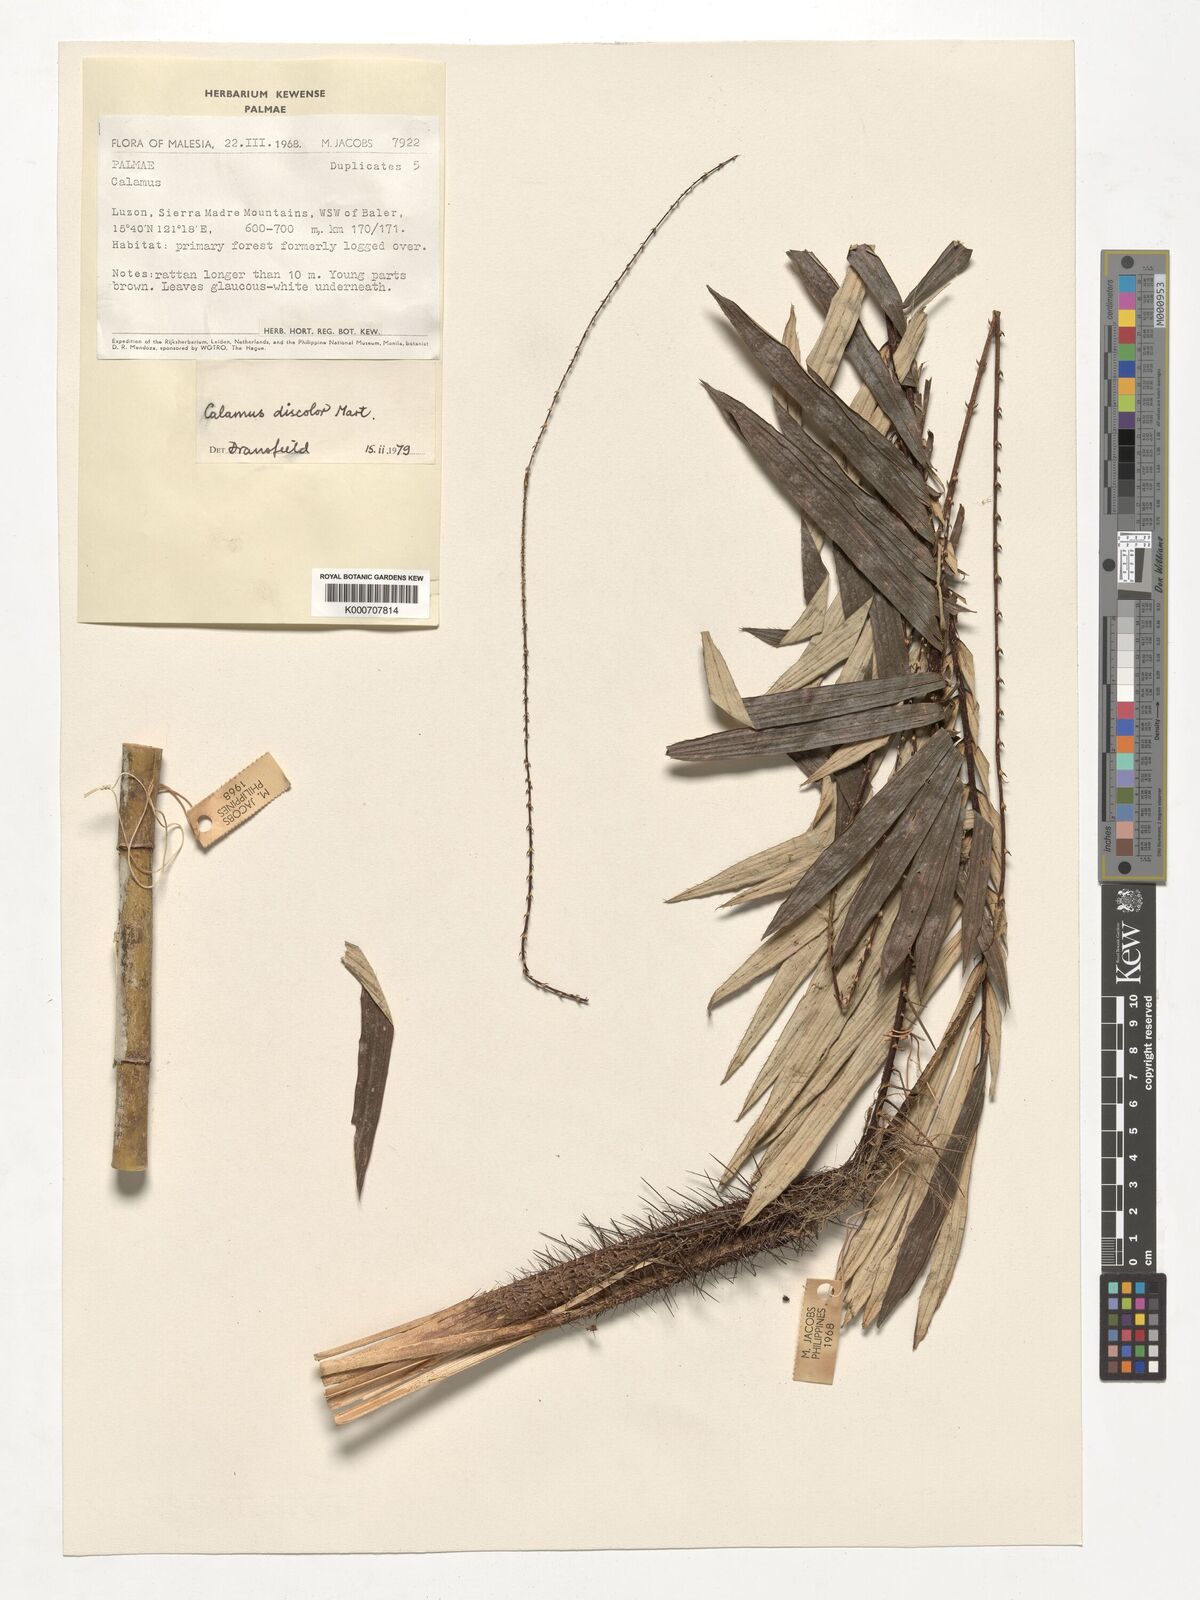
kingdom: Plantae
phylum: Tracheophyta
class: Liliopsida
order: Arecales
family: Arecaceae
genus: Calamus
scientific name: Calamus discolor
